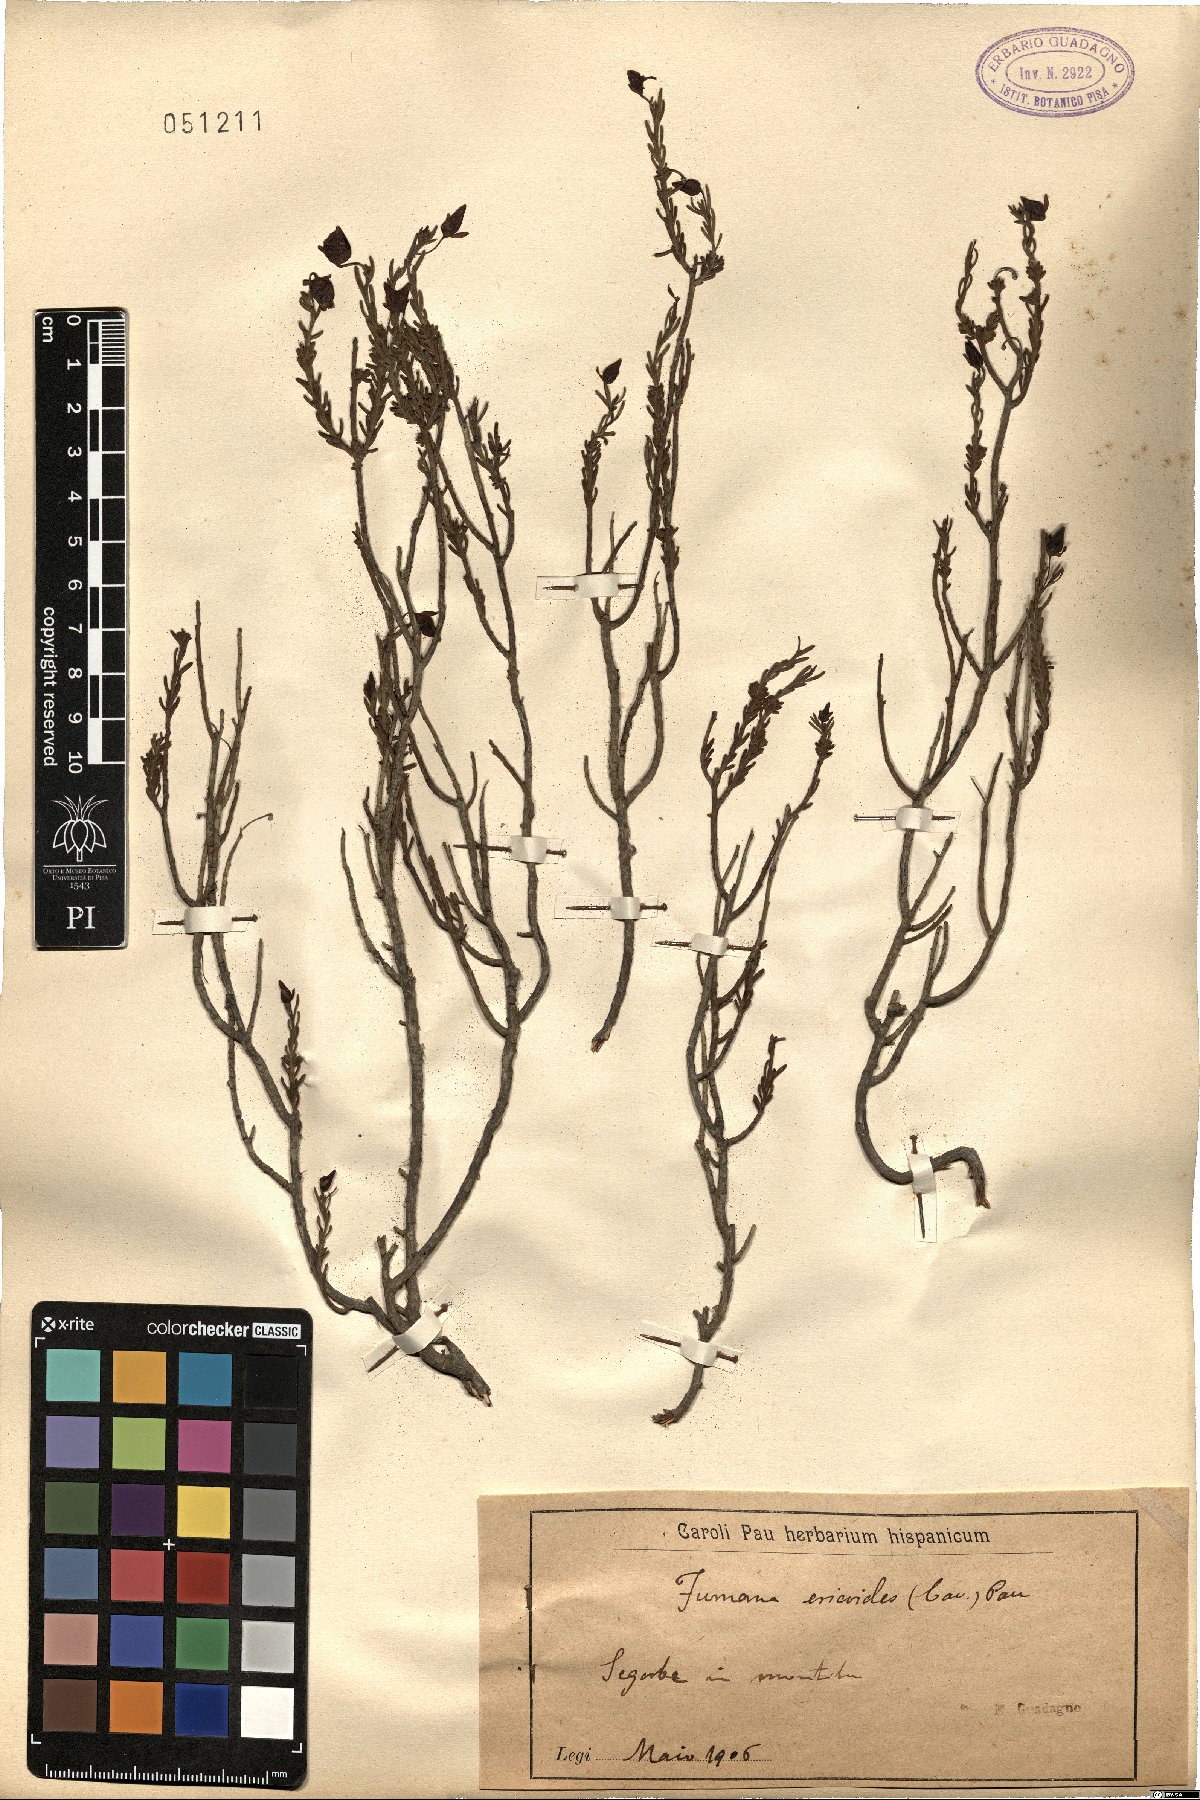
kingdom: Plantae
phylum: Tracheophyta
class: Magnoliopsida
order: Malvales
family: Cistaceae
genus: Fumana
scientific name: Fumana ericoides
